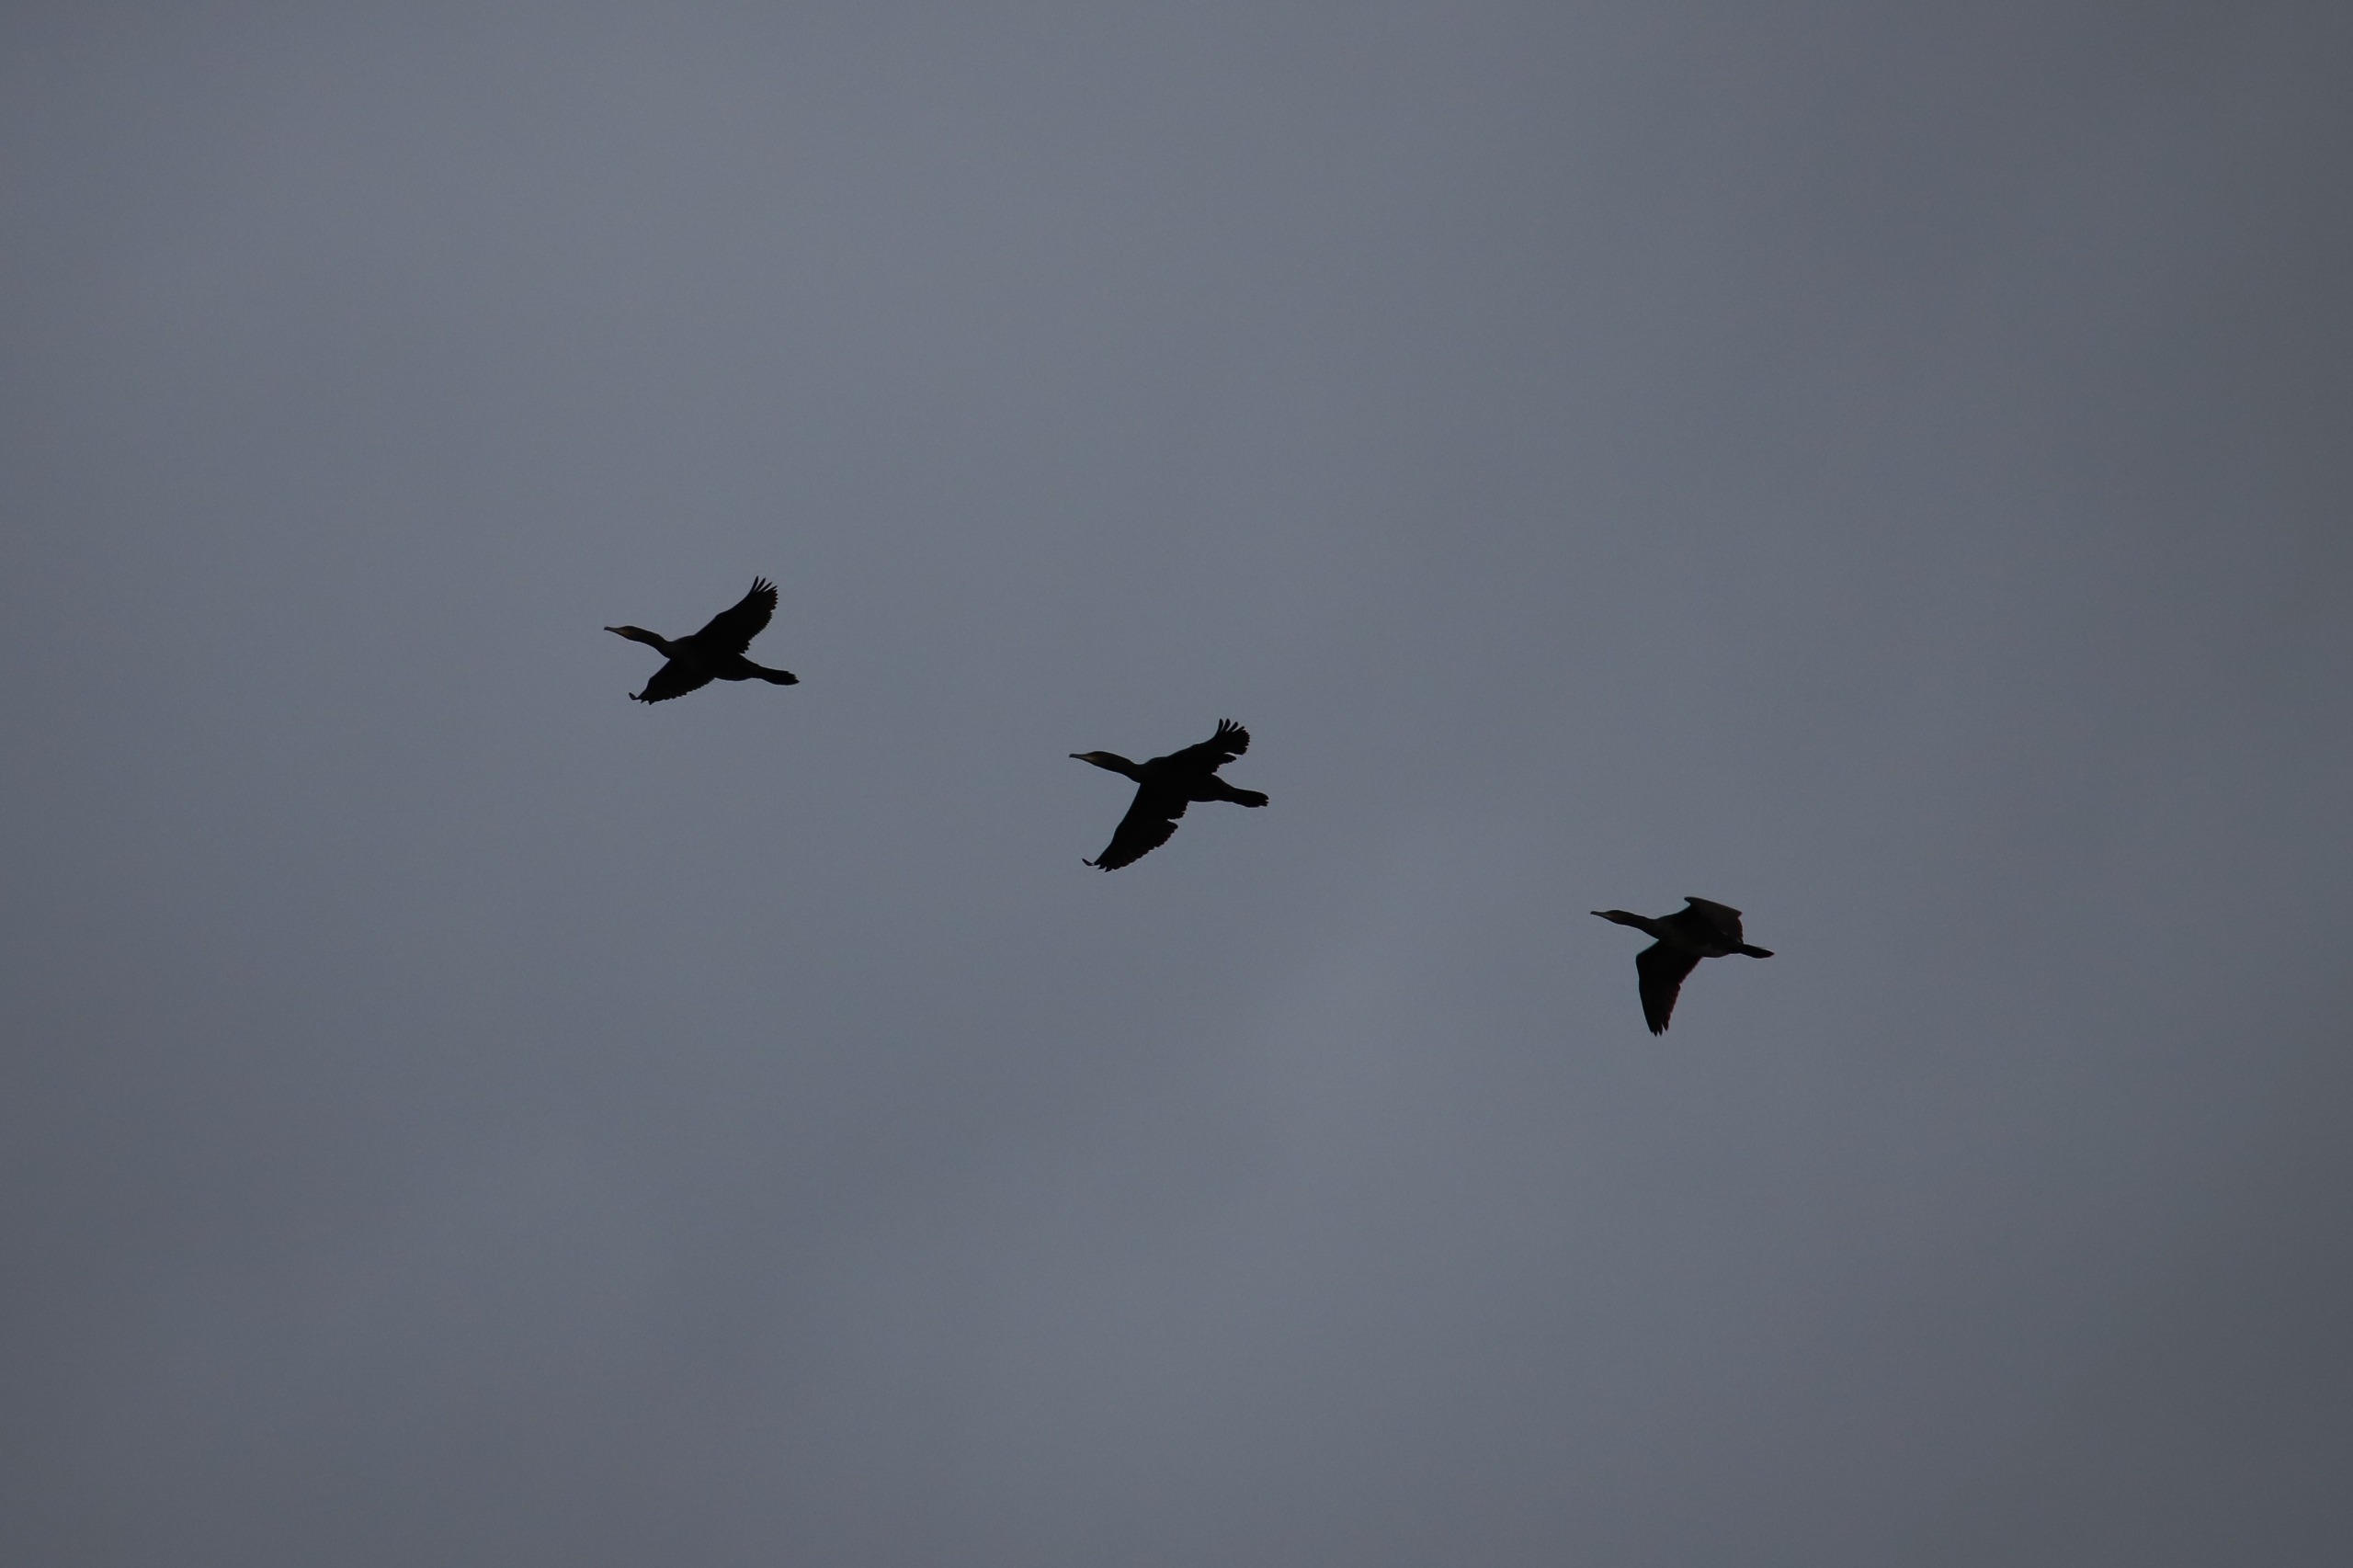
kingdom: Animalia
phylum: Chordata
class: Aves
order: Suliformes
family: Phalacrocoracidae
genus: Phalacrocorax
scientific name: Phalacrocorax carbo
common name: Skarv
